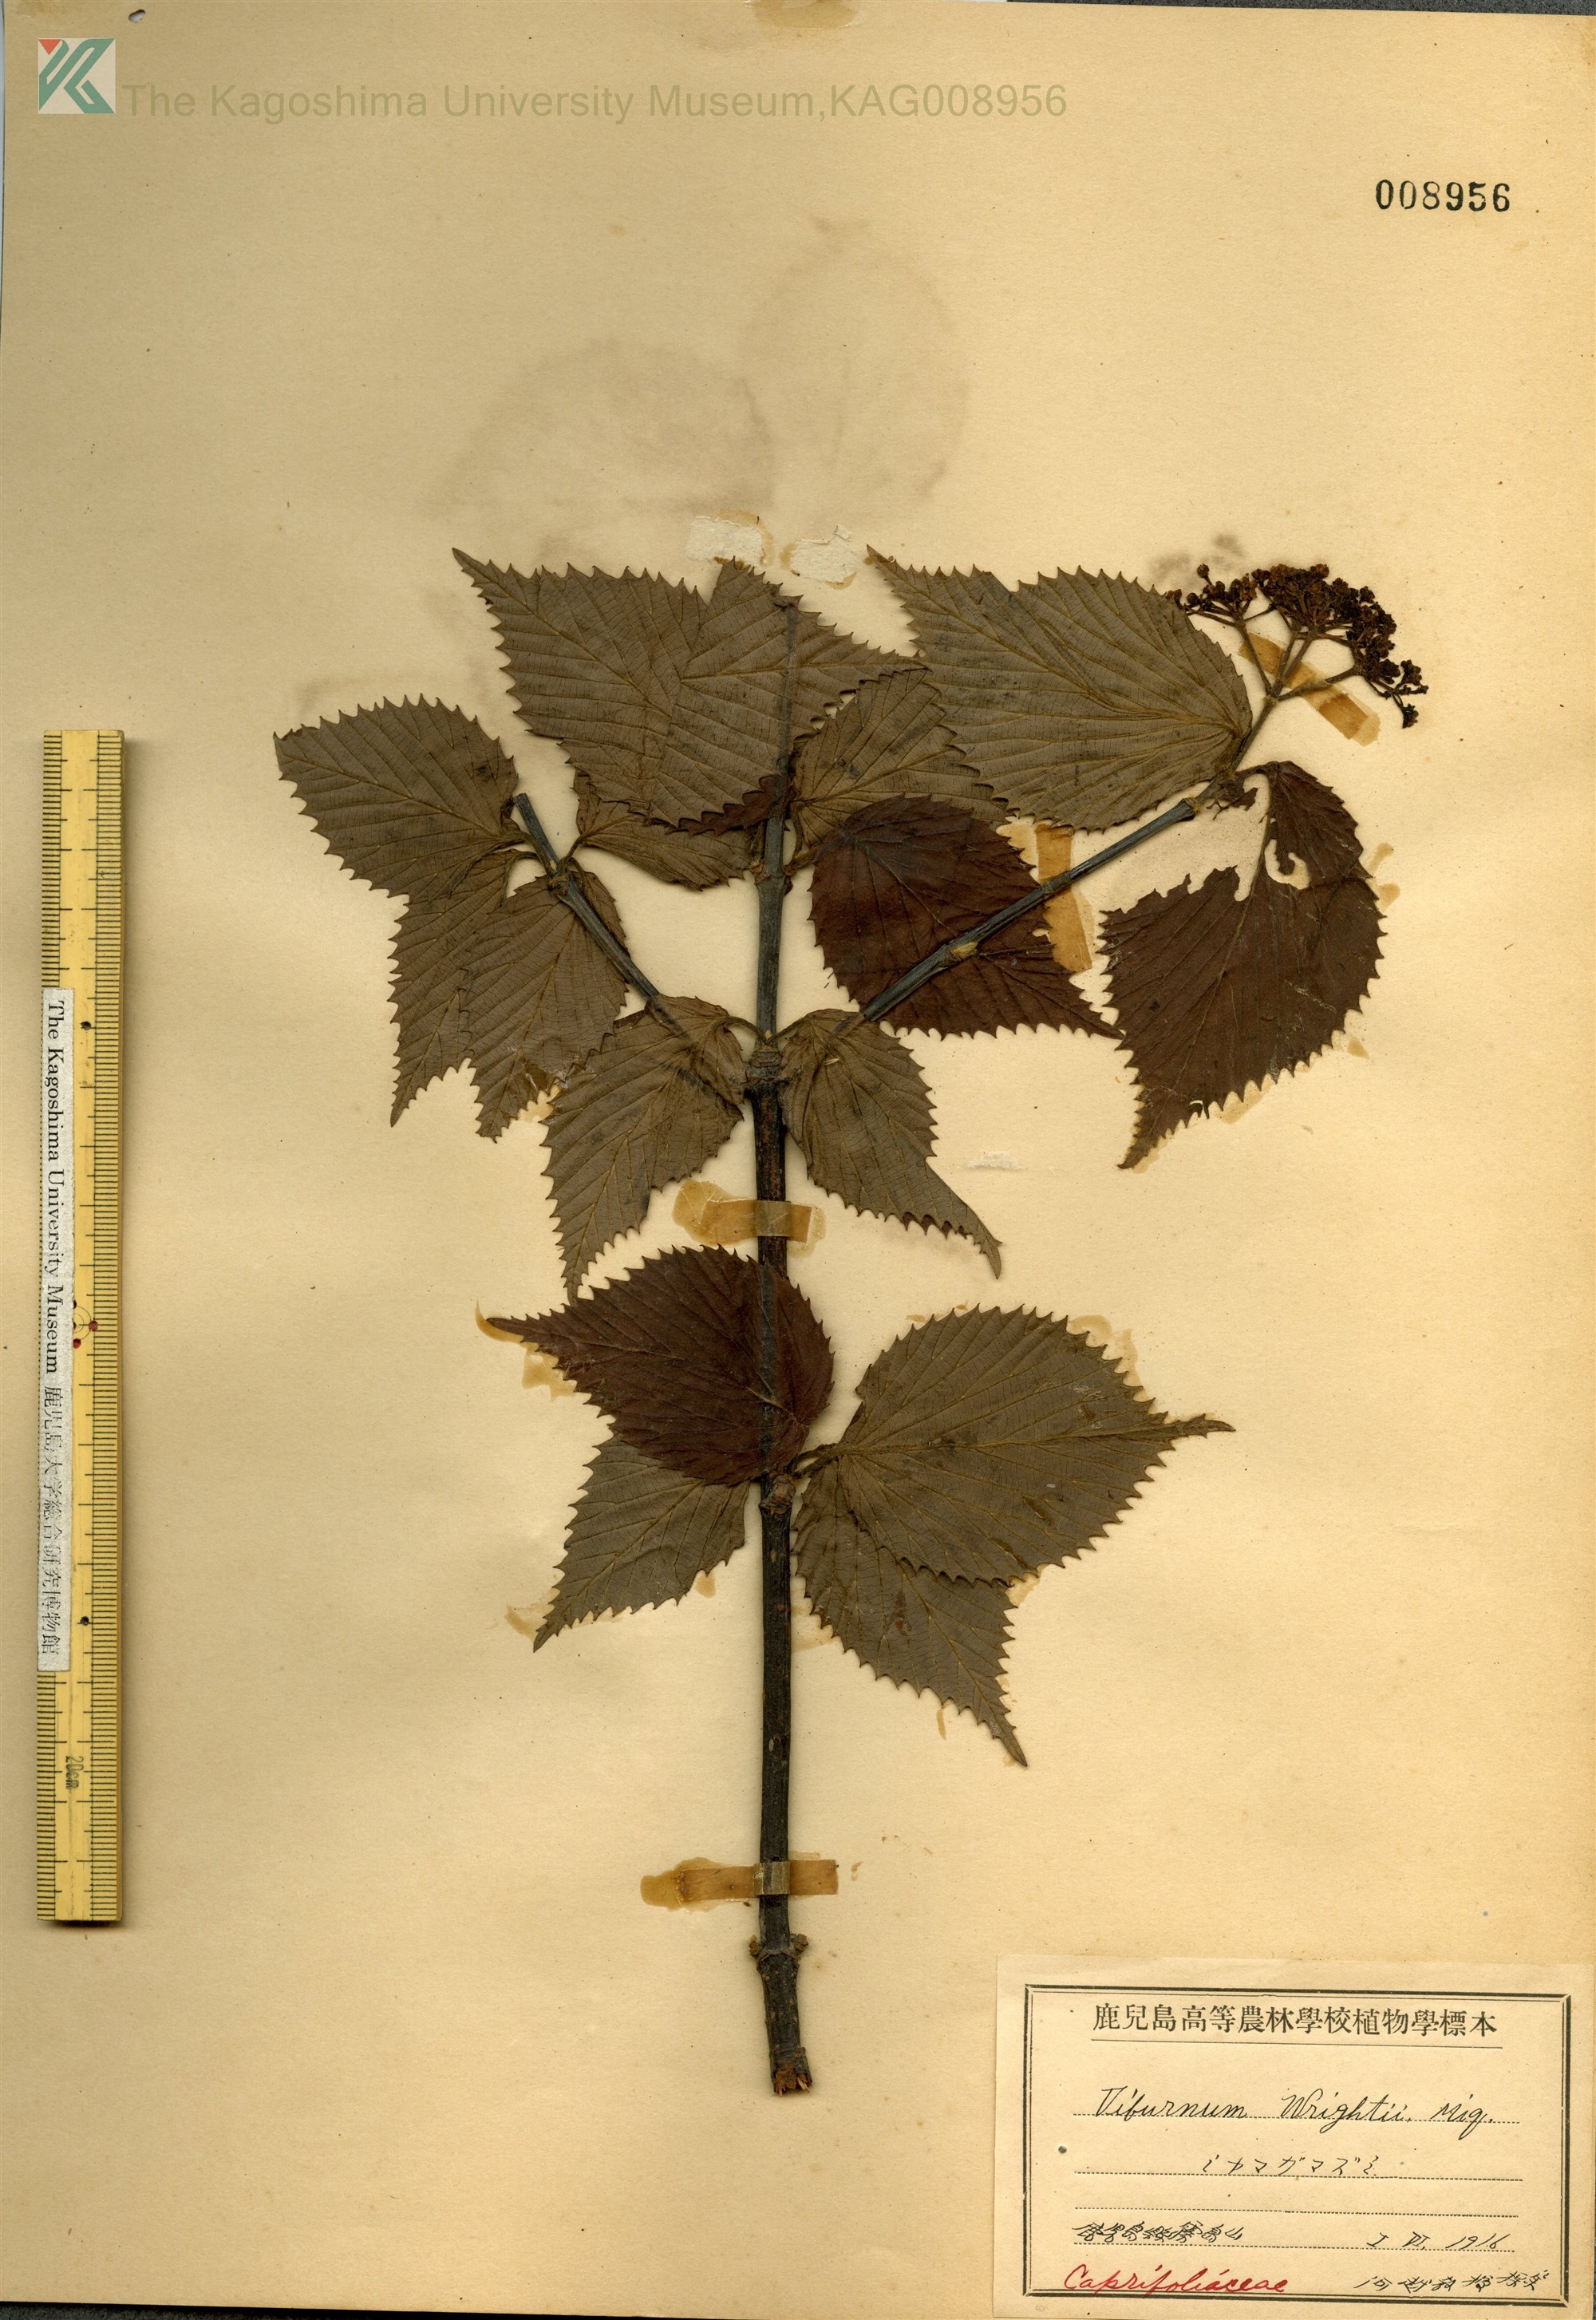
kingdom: Plantae
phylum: Tracheophyta
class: Magnoliopsida
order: Dipsacales
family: Viburnaceae
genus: Viburnum
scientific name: Viburnum wrightii
